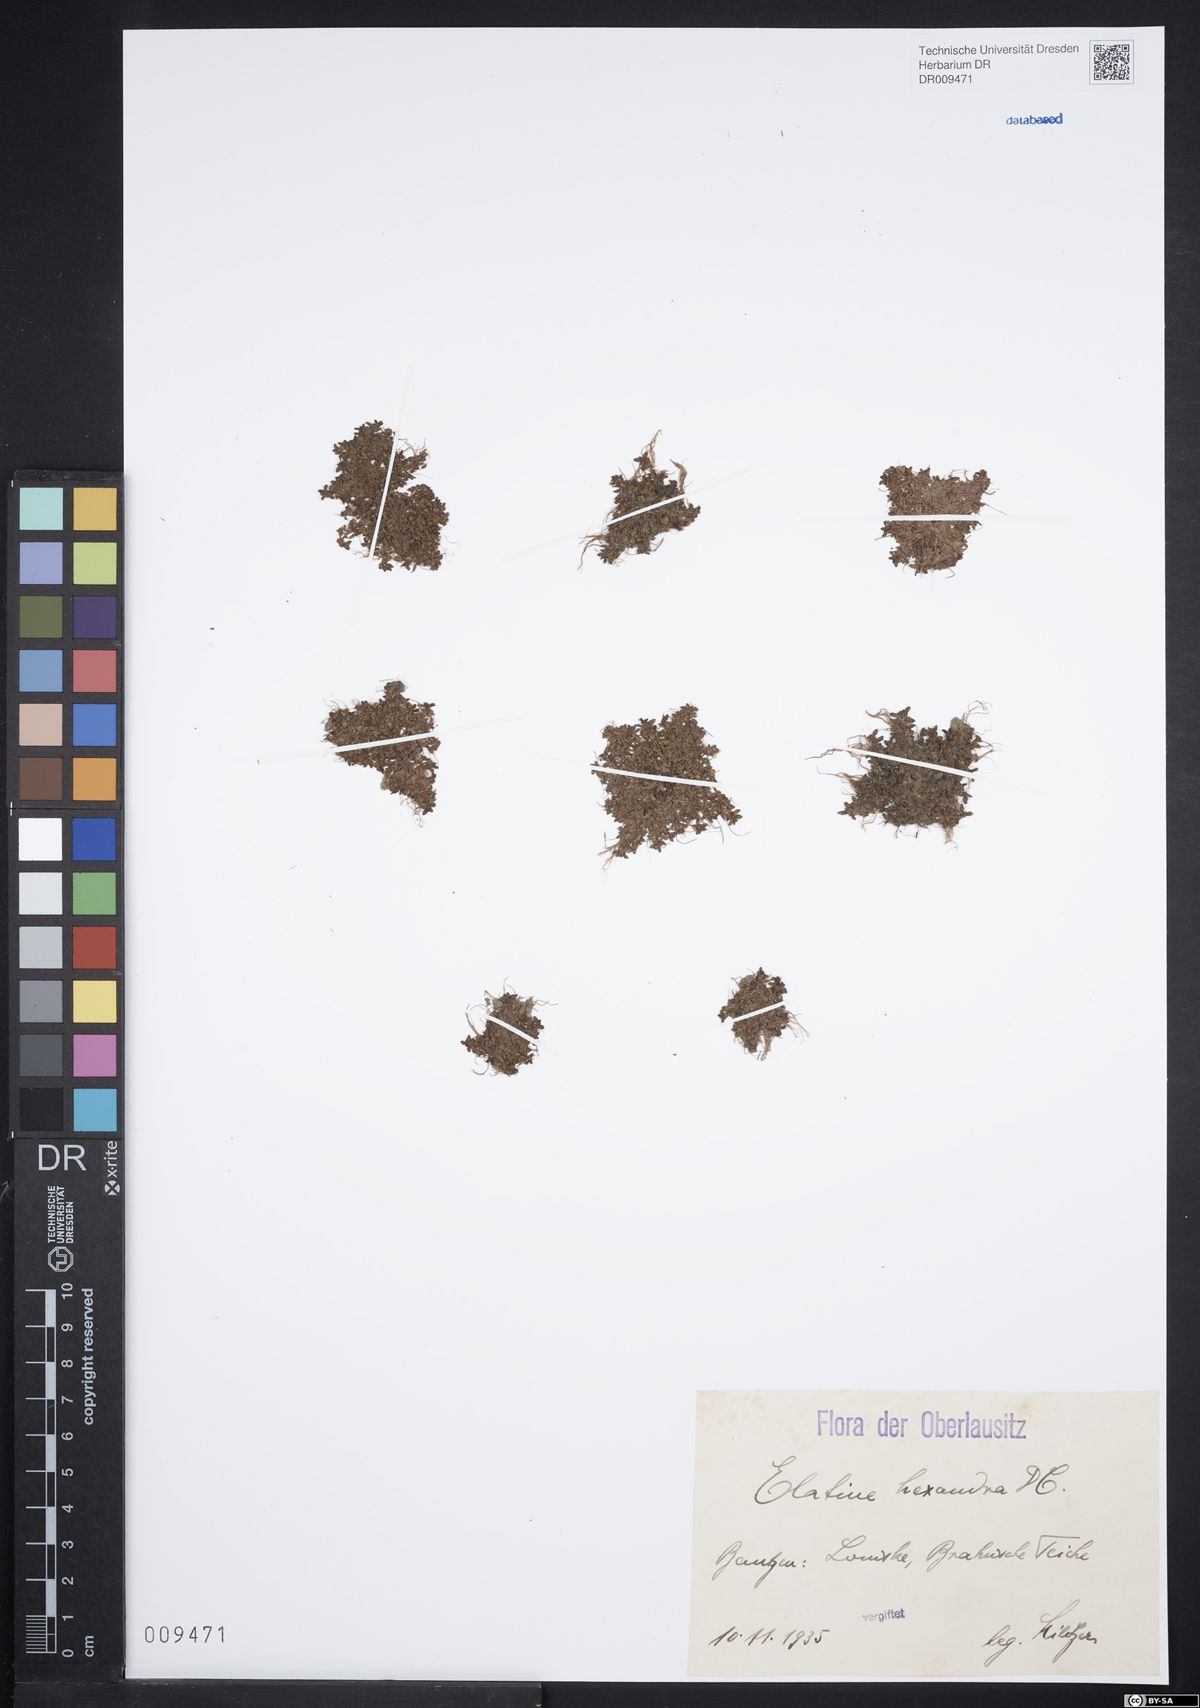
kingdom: Plantae
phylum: Tracheophyta
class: Magnoliopsida
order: Malpighiales
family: Elatinaceae
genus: Elatine
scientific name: Elatine hexandra
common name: Six-stamened waterwort
